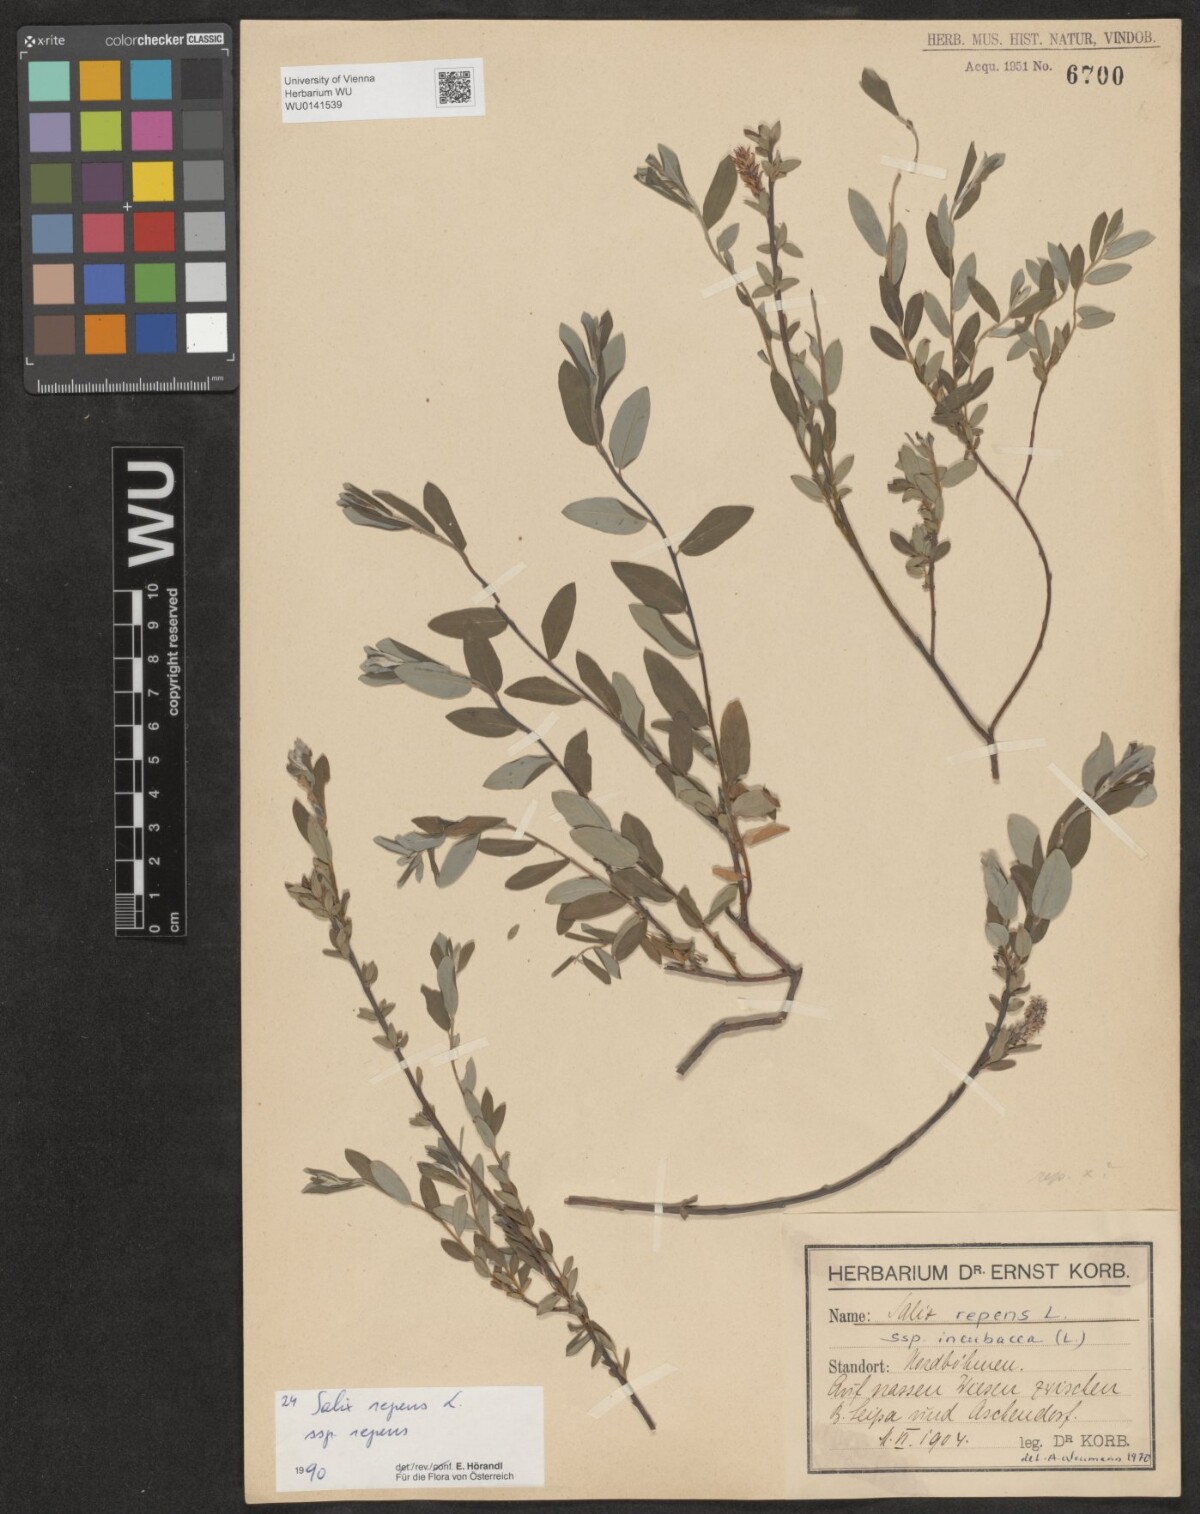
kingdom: Plantae
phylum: Tracheophyta
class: Magnoliopsida
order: Malpighiales
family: Salicaceae
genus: Salix
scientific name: Salix repens
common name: Creeping willow
